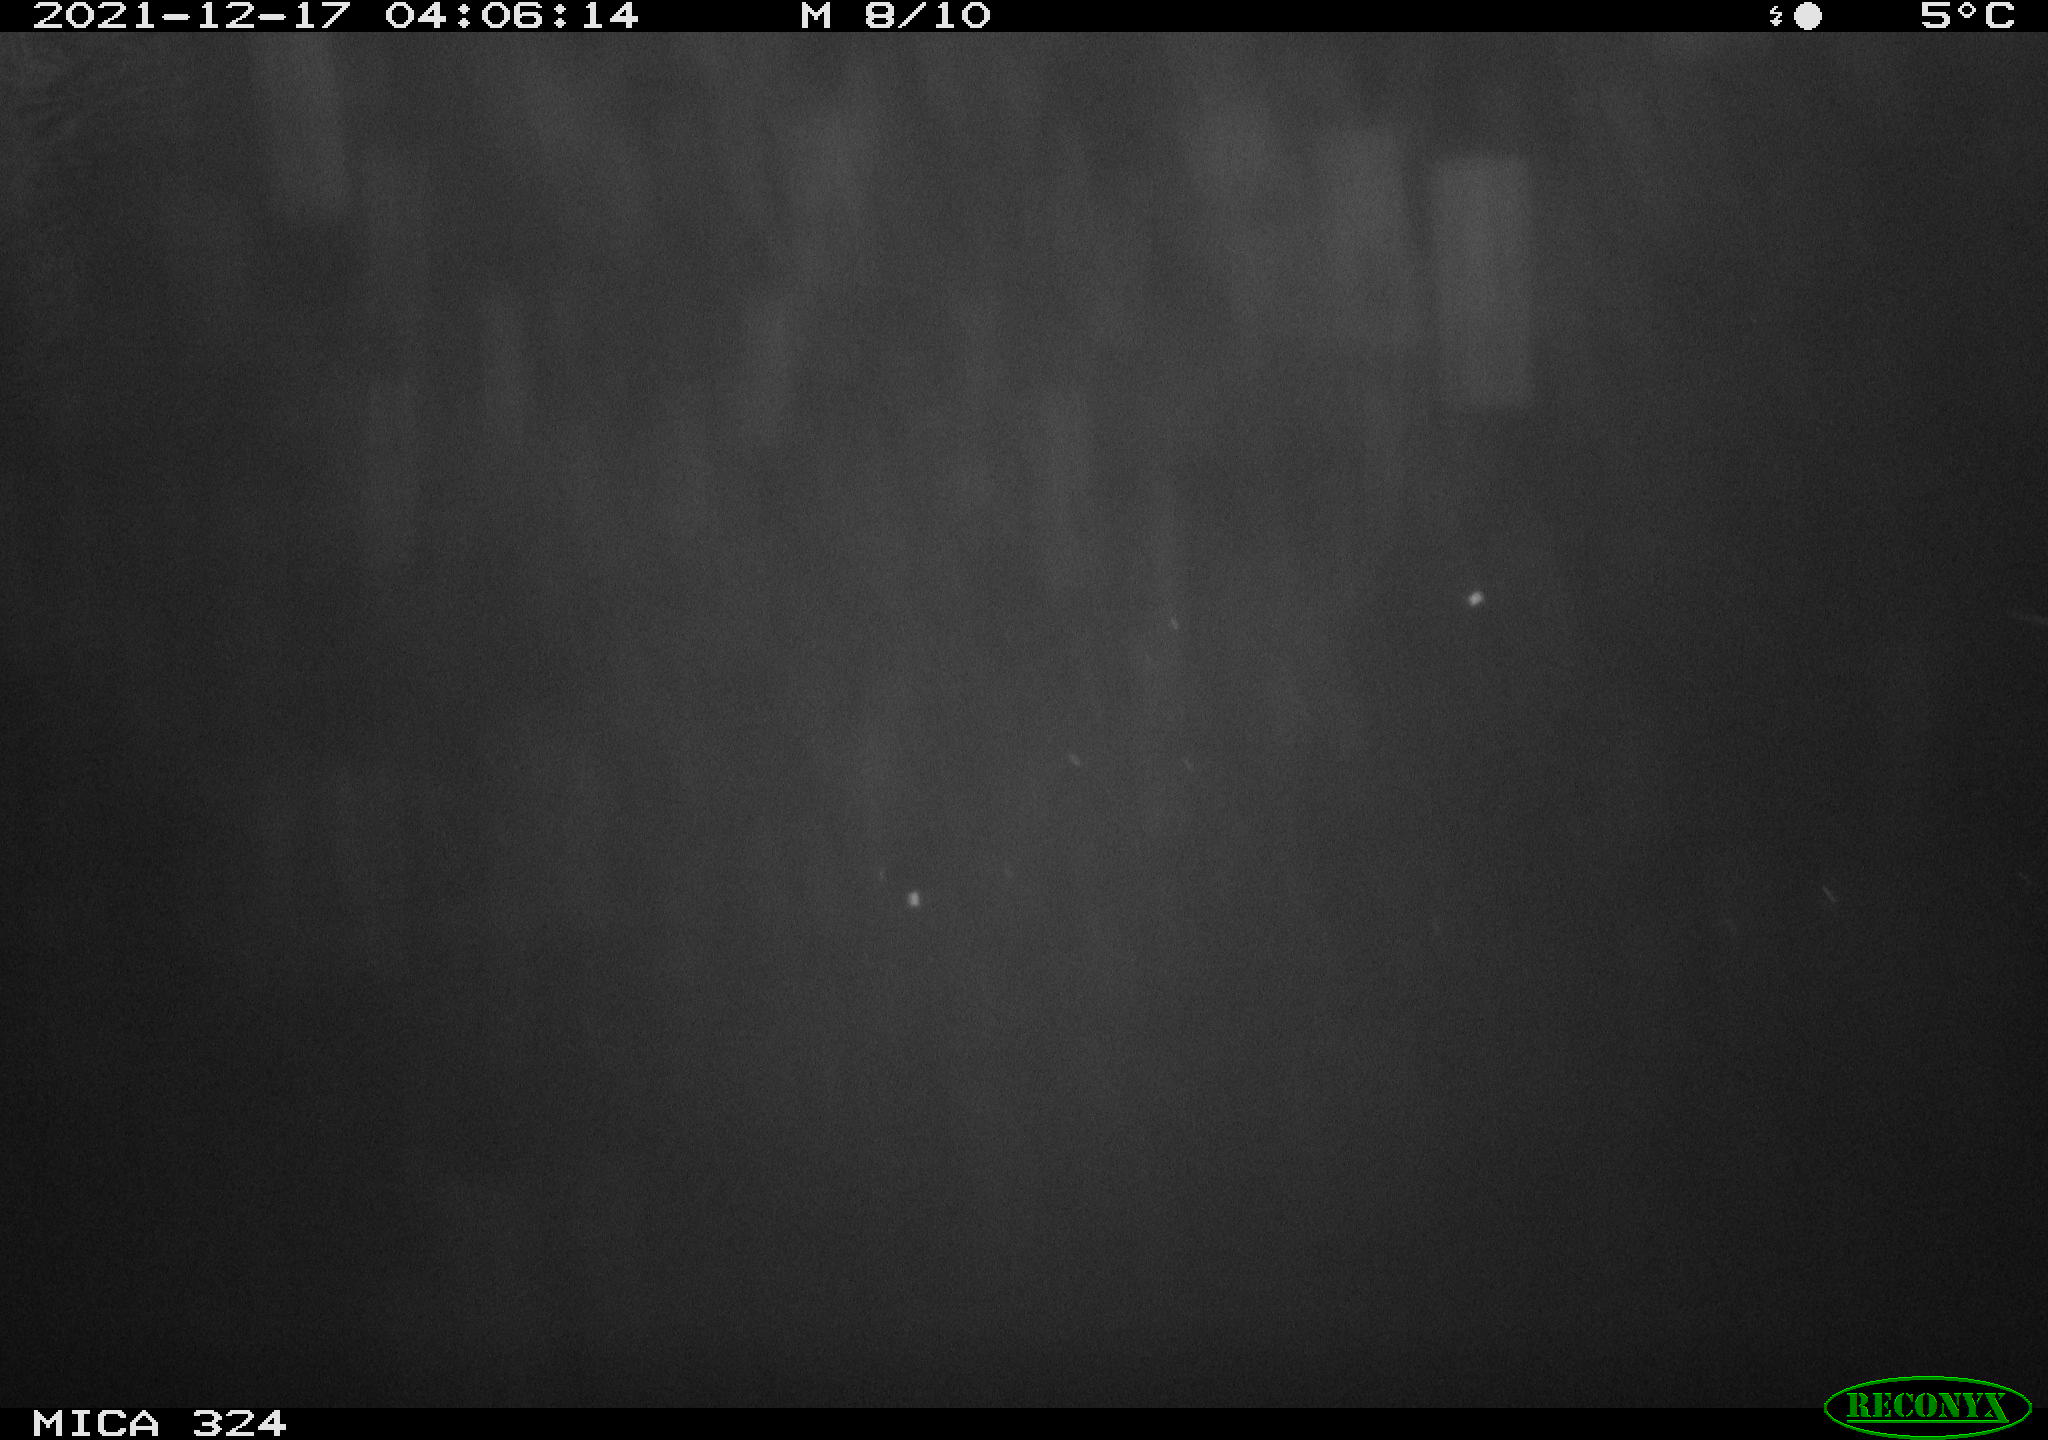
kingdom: Animalia
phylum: Chordata
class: Mammalia
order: Rodentia
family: Cricetidae
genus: Ondatra
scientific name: Ondatra zibethicus
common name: Muskrat
